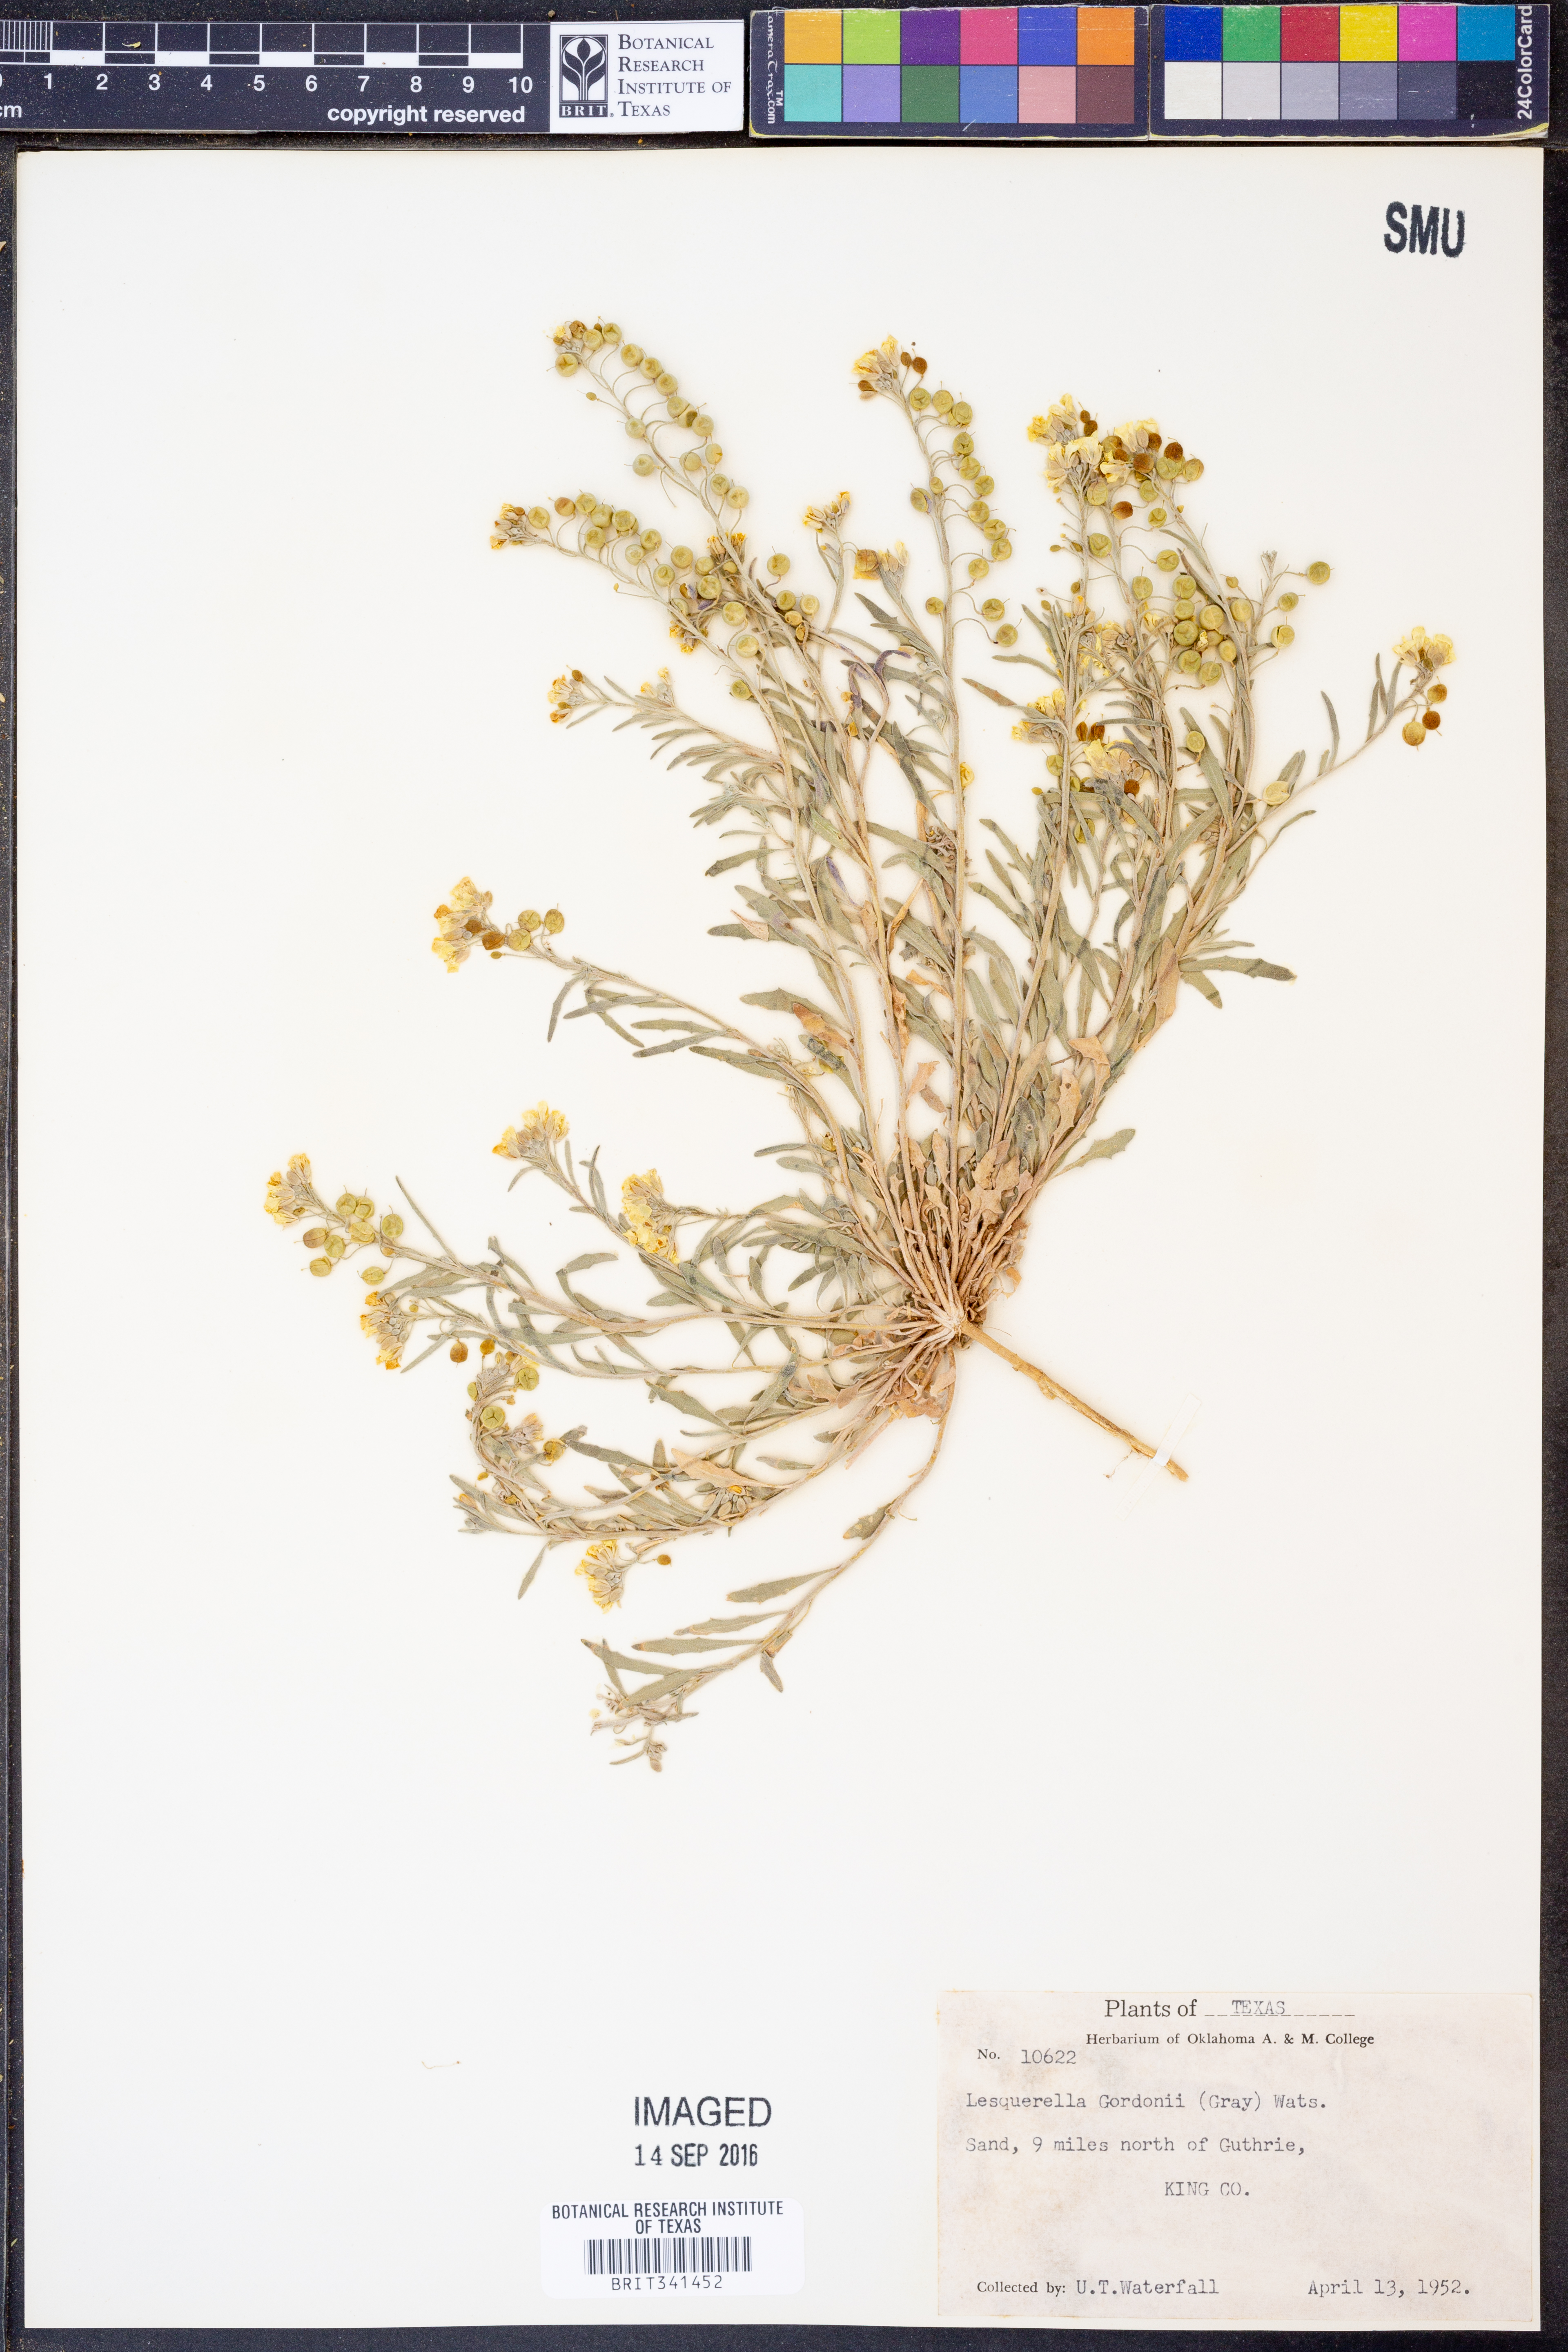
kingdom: Plantae
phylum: Tracheophyta
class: Magnoliopsida
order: Brassicales
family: Brassicaceae
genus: Physaria
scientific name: Physaria gordonii
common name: Gordon's bladderpod
